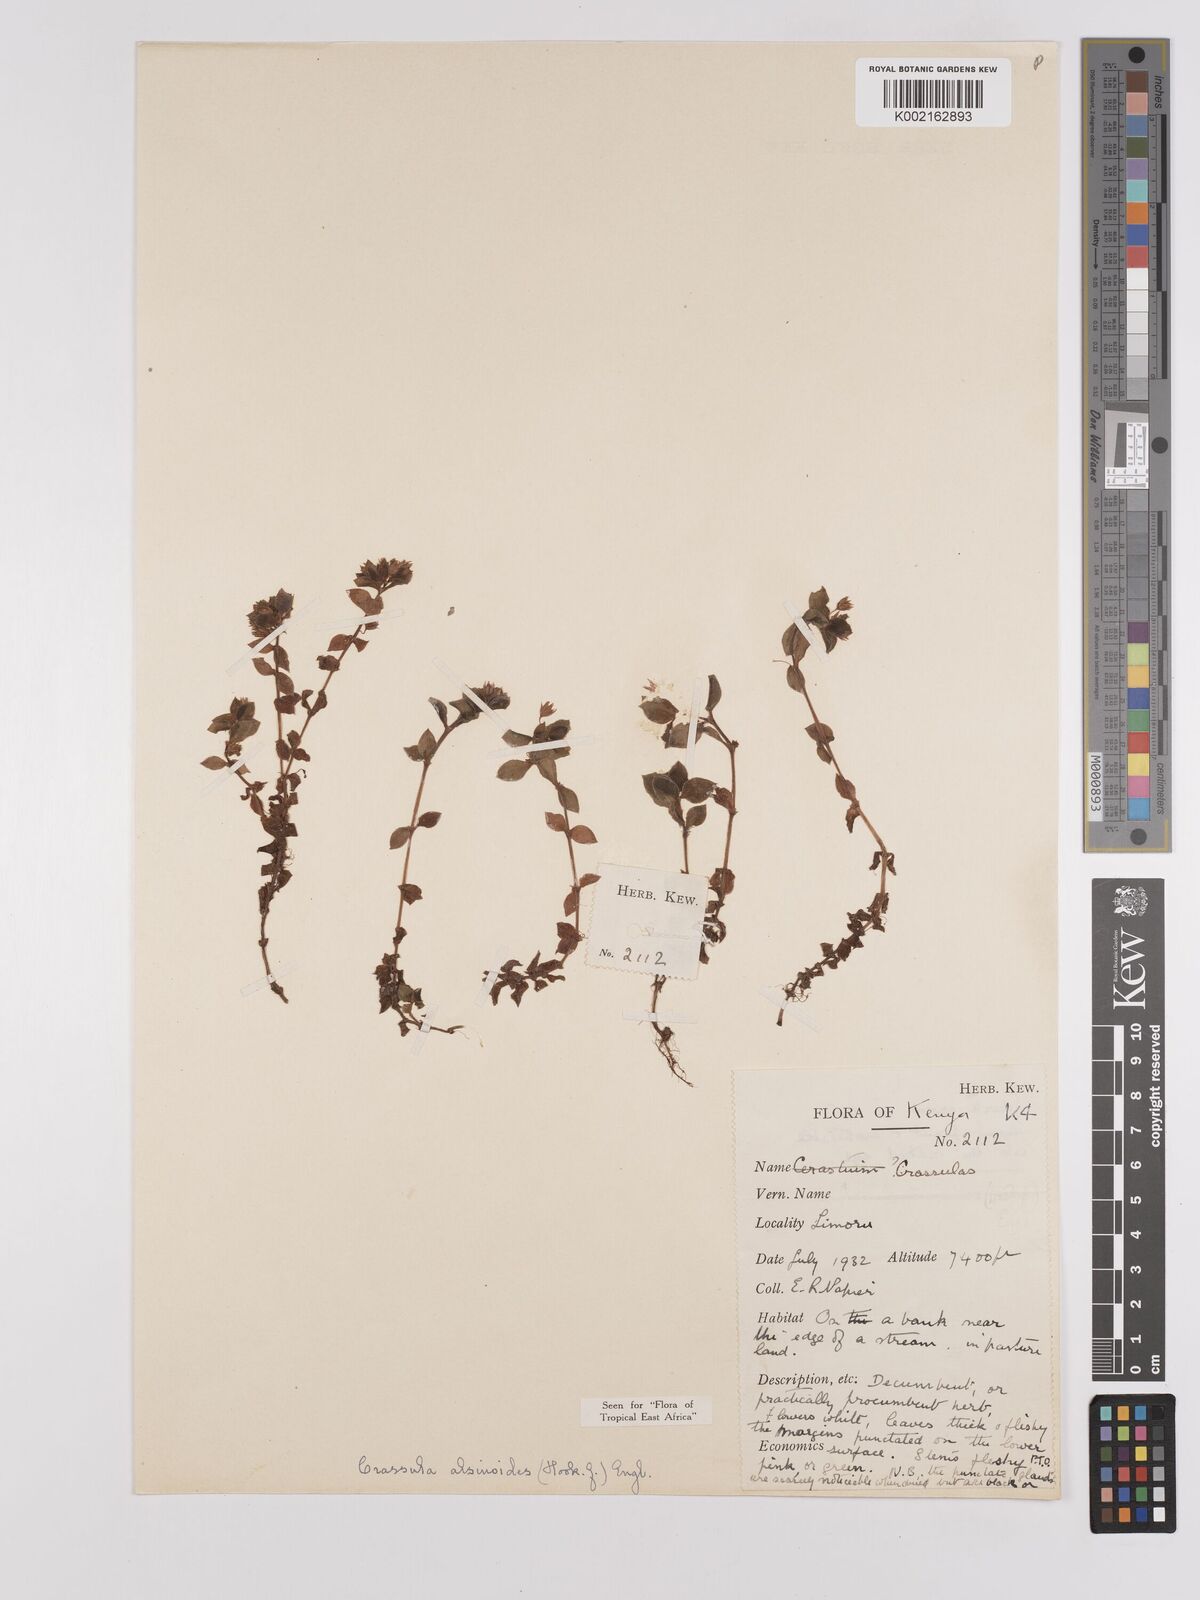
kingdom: Plantae
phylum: Tracheophyta
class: Magnoliopsida
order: Saxifragales
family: Crassulaceae
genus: Crassula
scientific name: Crassula alsinoides
